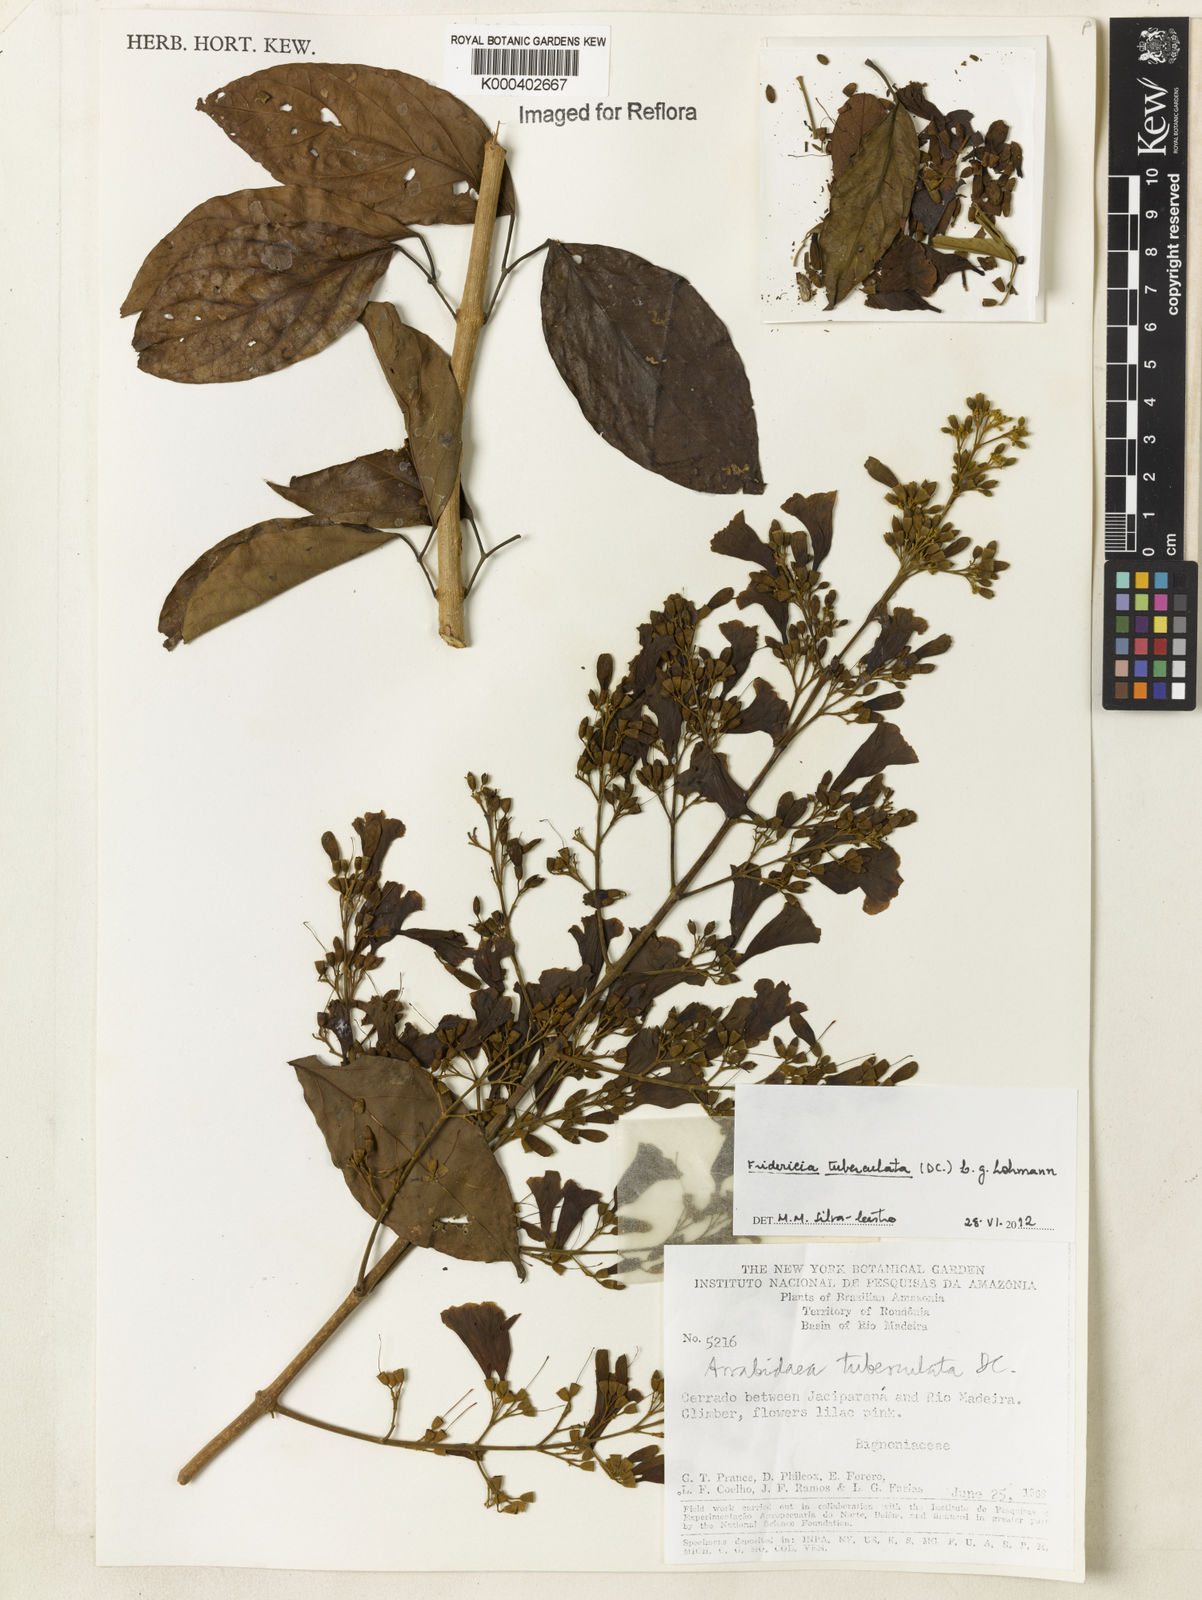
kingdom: Plantae
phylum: Tracheophyta
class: Magnoliopsida
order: Lamiales
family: Bignoniaceae
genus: Fridericia
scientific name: Fridericia tuberculata
